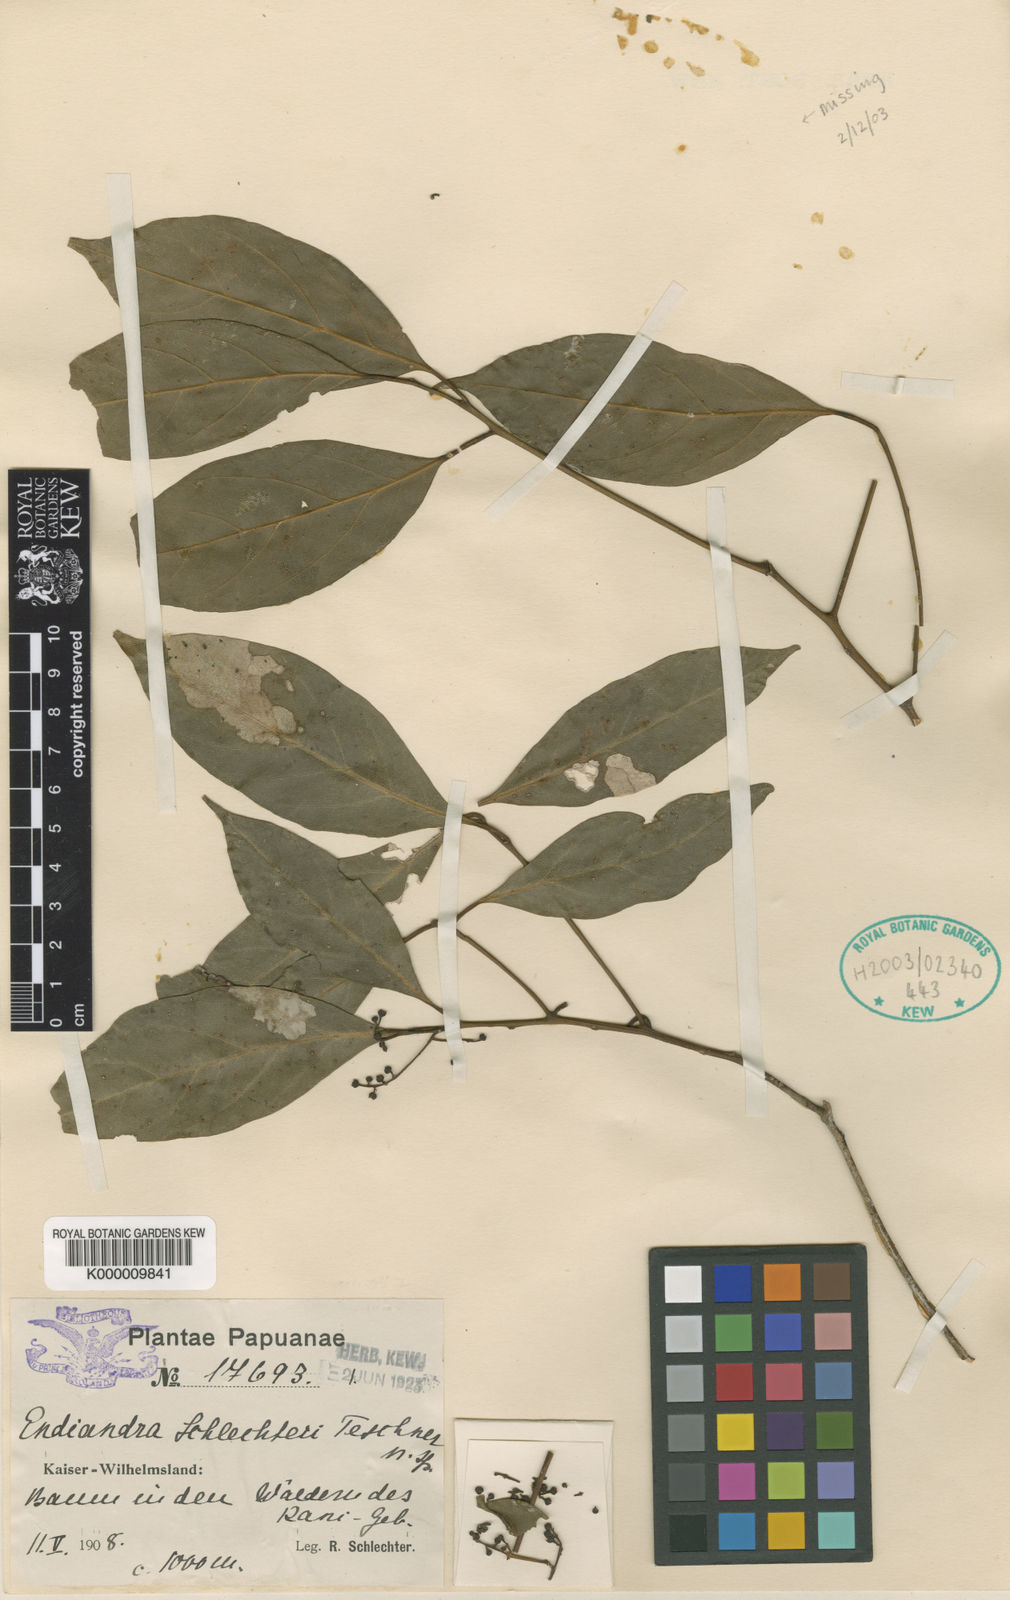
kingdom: Plantae
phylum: Tracheophyta
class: Magnoliopsida
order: Laurales
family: Lauraceae
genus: Endiandra
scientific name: Endiandra schlechteri
